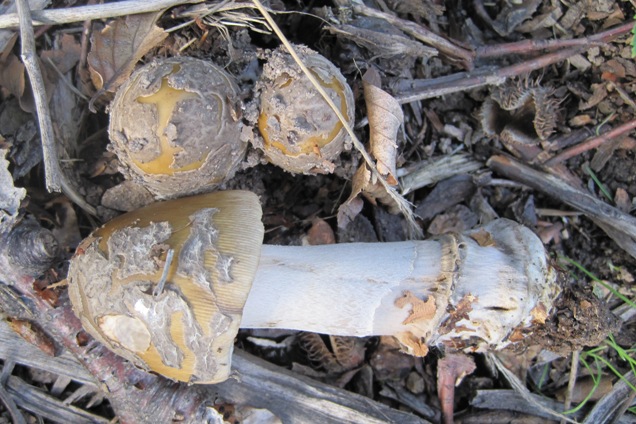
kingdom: Fungi
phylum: Basidiomycota
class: Agaricomycetes
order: Agaricales
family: Amanitaceae
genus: Amanita
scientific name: Amanita ceciliae
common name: stor kam-fluesvamp
